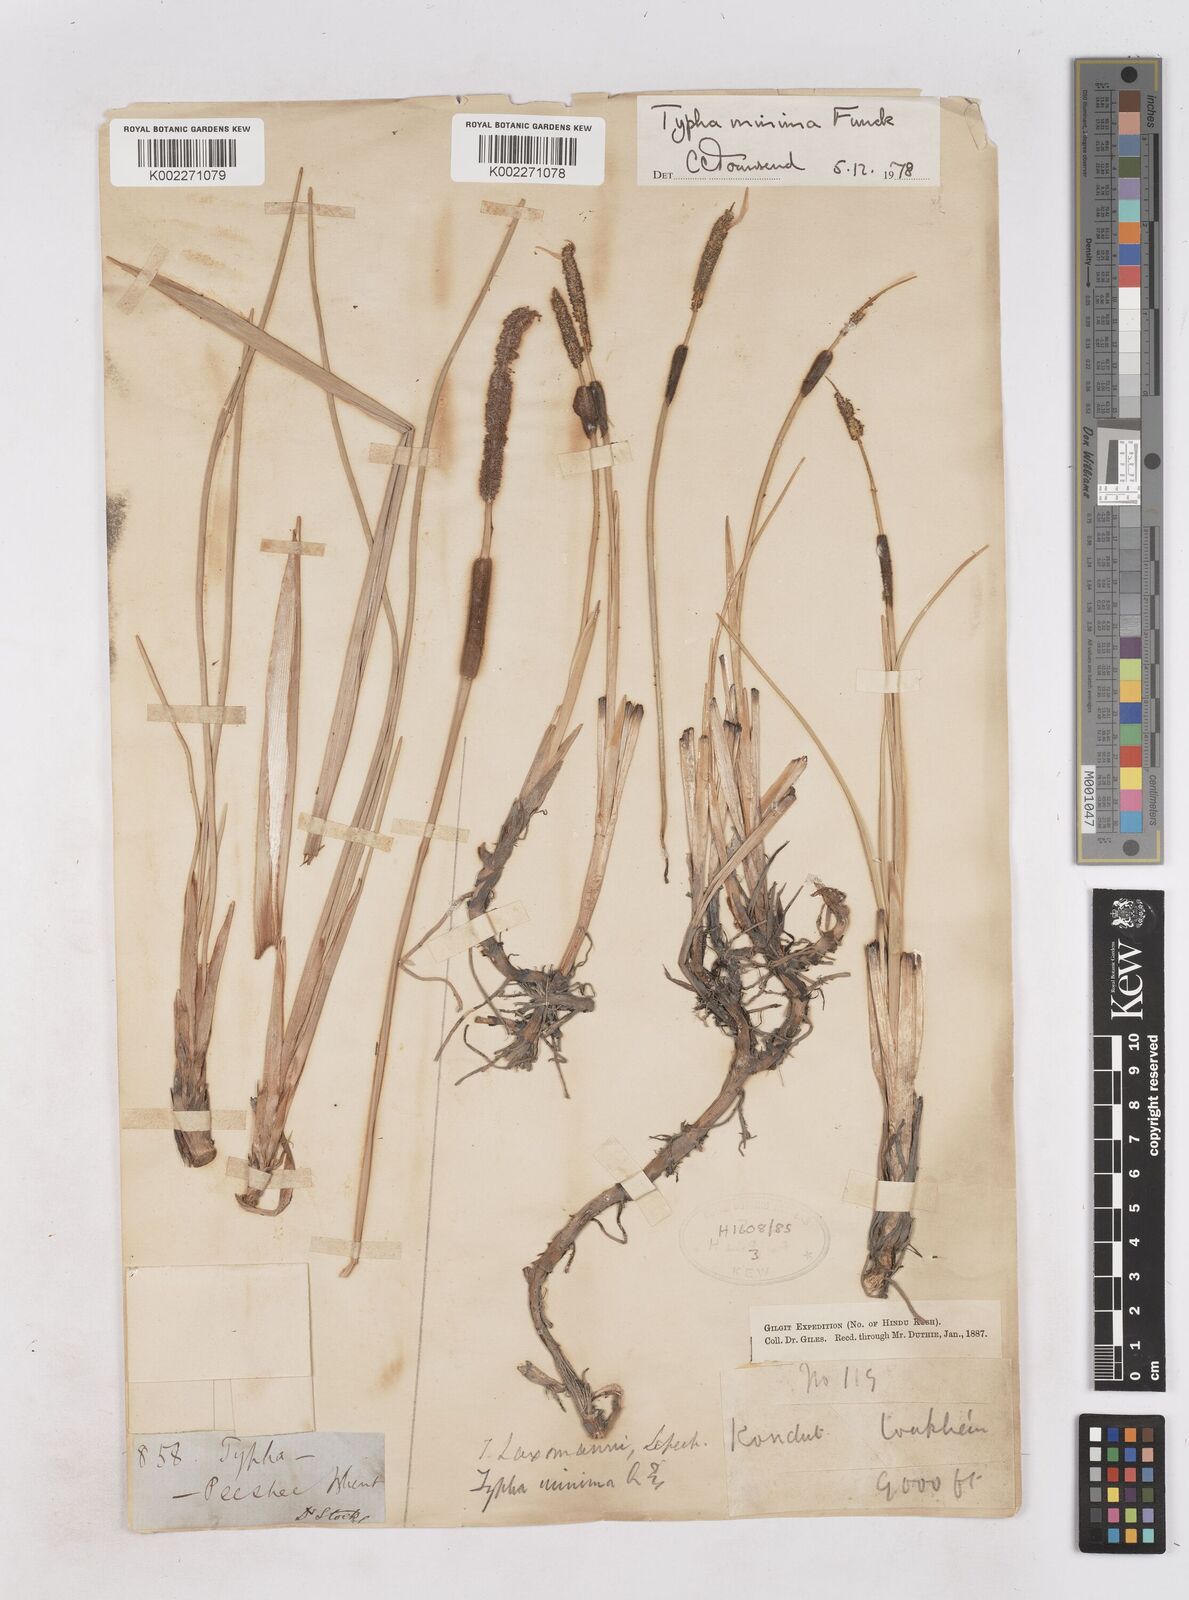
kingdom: Plantae
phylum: Tracheophyta
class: Liliopsida
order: Poales
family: Typhaceae
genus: Typha
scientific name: Typha minima
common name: Dwarf bulrush
